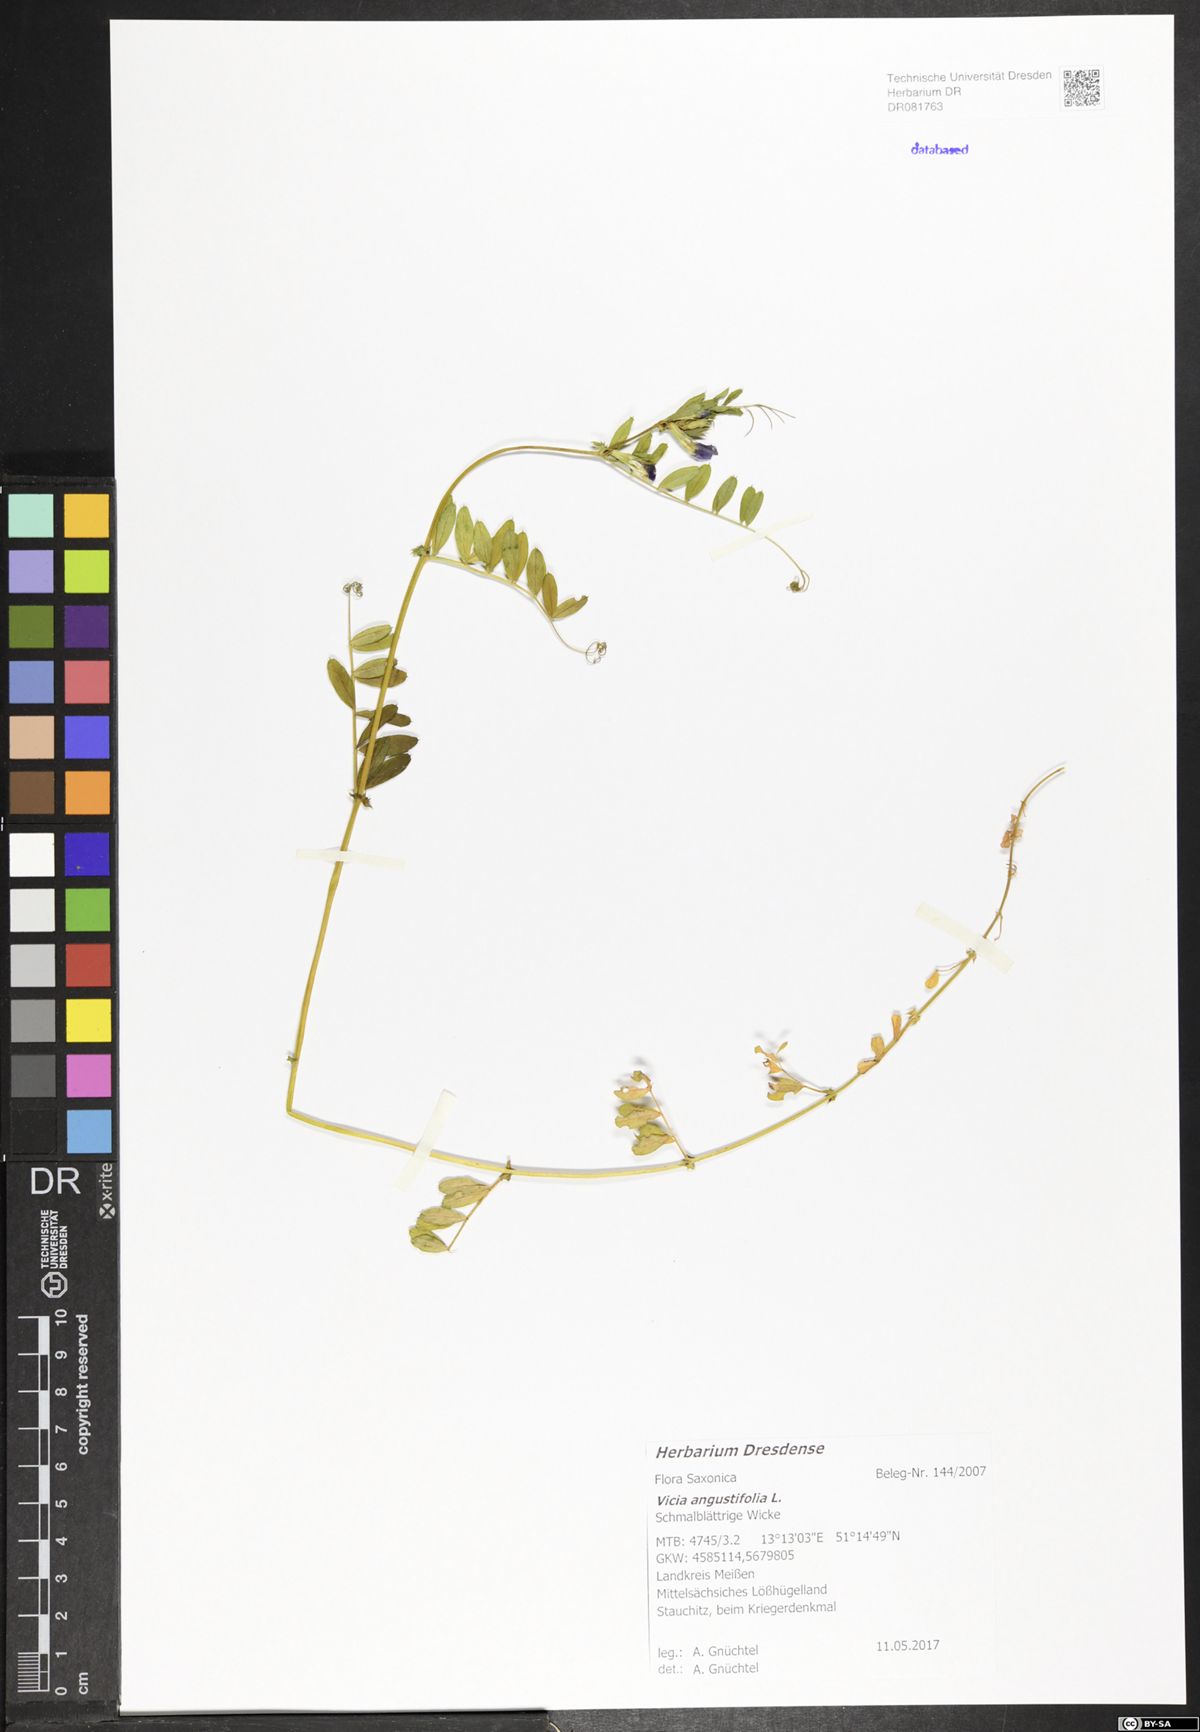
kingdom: Plantae
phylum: Tracheophyta
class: Magnoliopsida
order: Fabales
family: Fabaceae
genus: Vicia
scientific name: Vicia sativa
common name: Garden vetch
